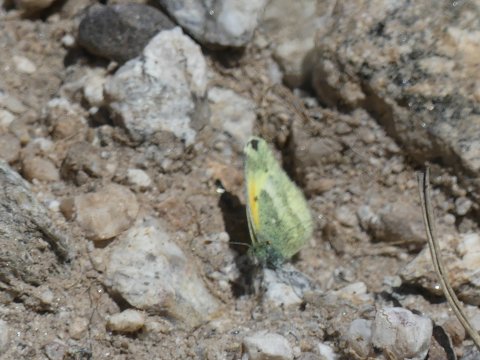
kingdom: Animalia
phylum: Arthropoda
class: Insecta
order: Lepidoptera
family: Pieridae
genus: Nathalis
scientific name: Nathalis iole
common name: Dainty Sulphur
